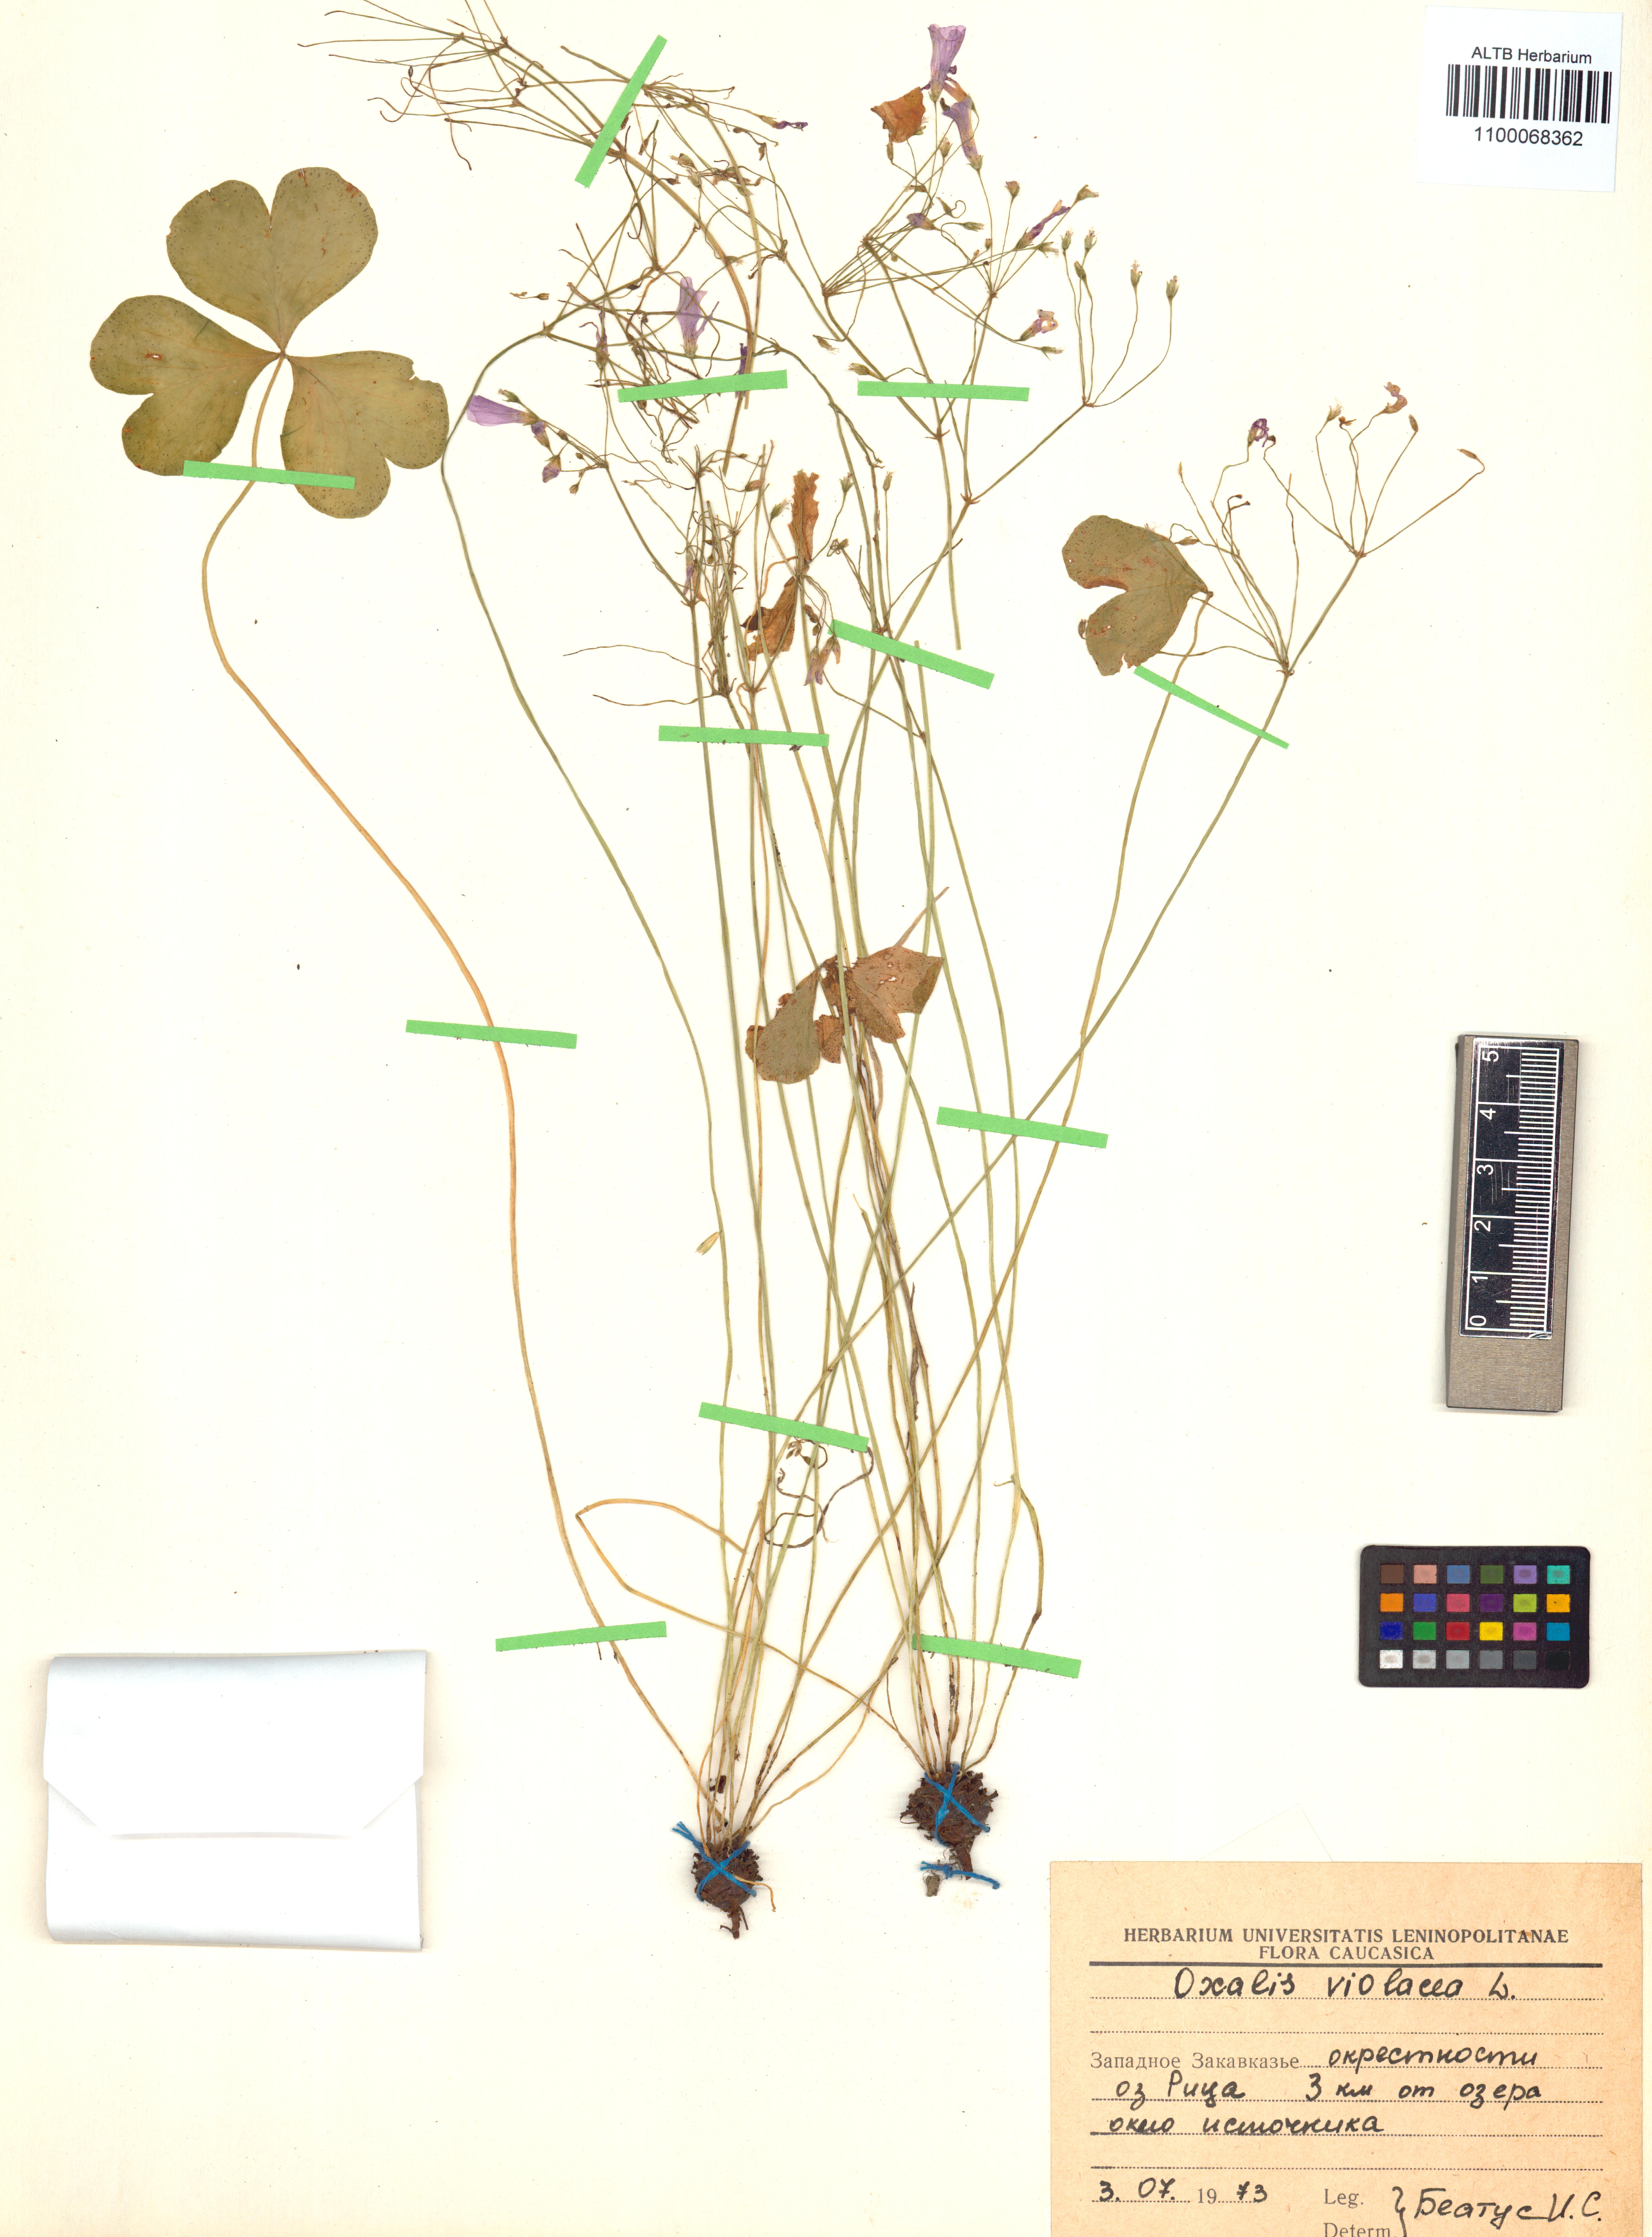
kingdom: Plantae
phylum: Tracheophyta
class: Magnoliopsida
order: Oxalidales
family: Oxalidaceae
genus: Oxalis
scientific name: Oxalis violacea
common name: Violet wood-sorrel
